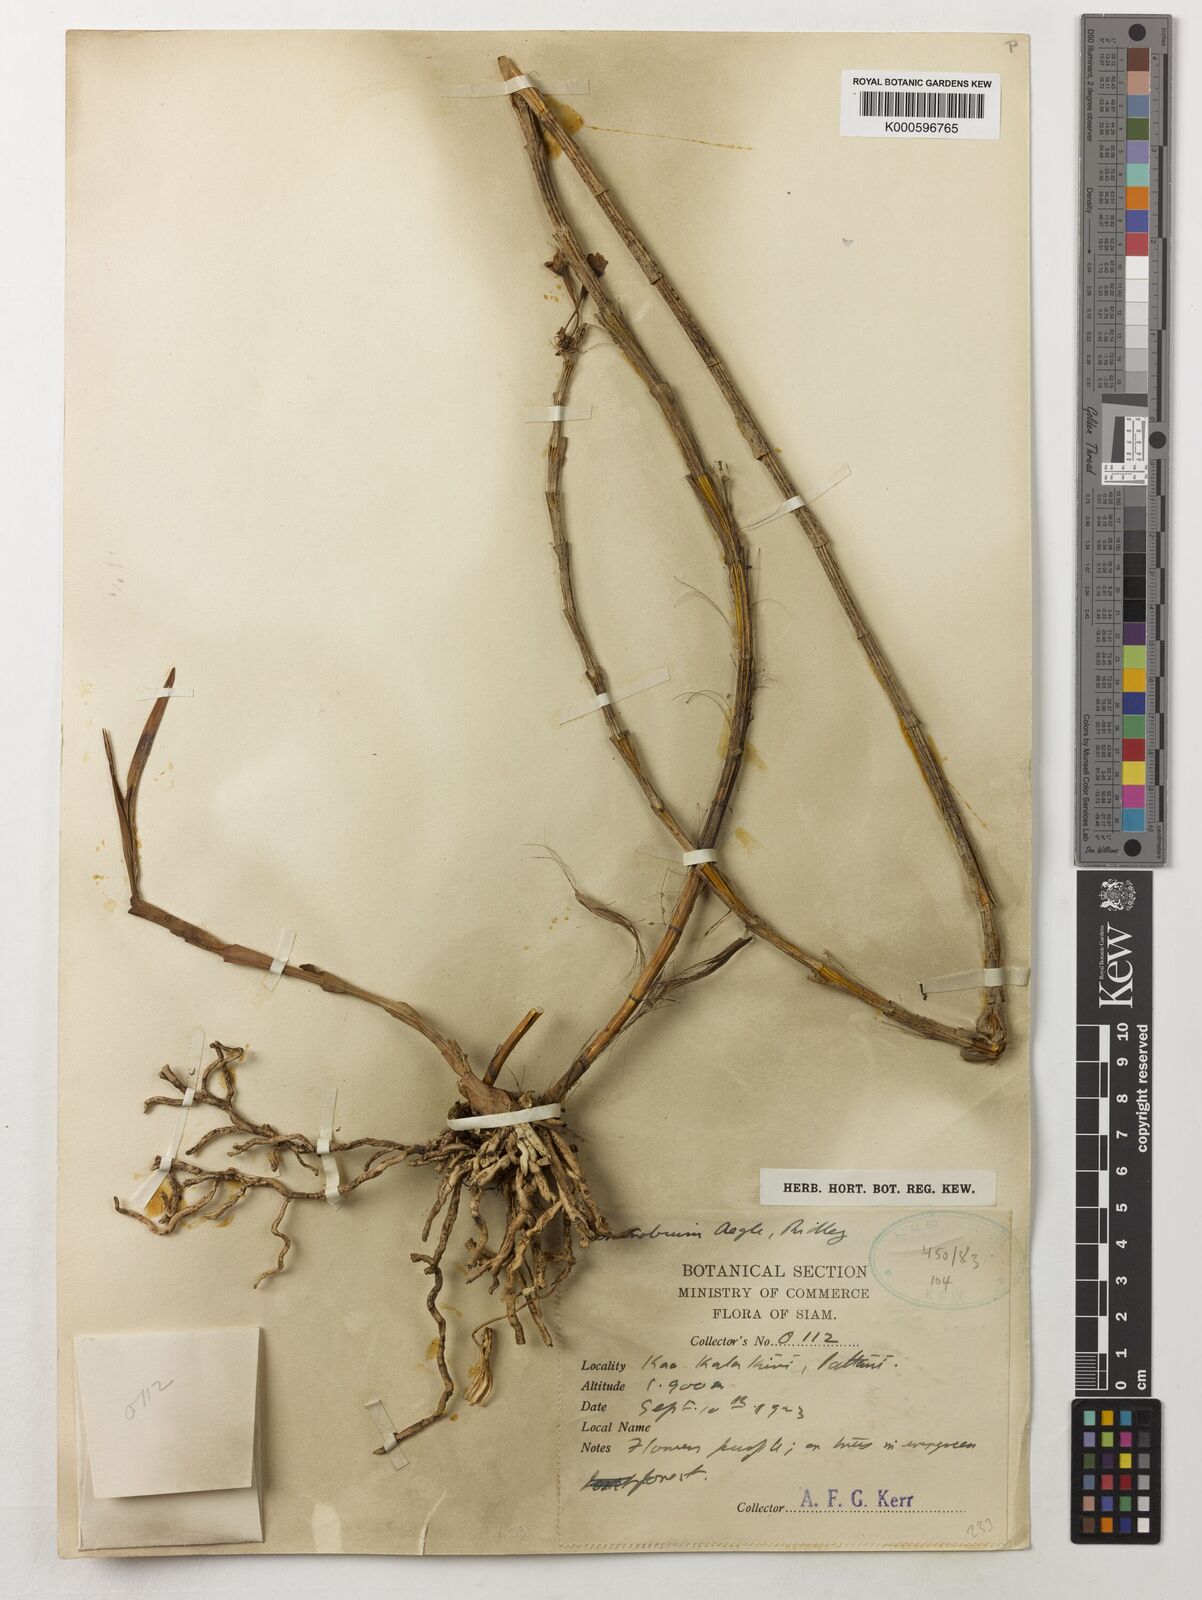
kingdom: Plantae
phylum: Tracheophyta
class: Liliopsida
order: Asparagales
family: Orchidaceae
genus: Dendrobium
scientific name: Dendrobium erosum
